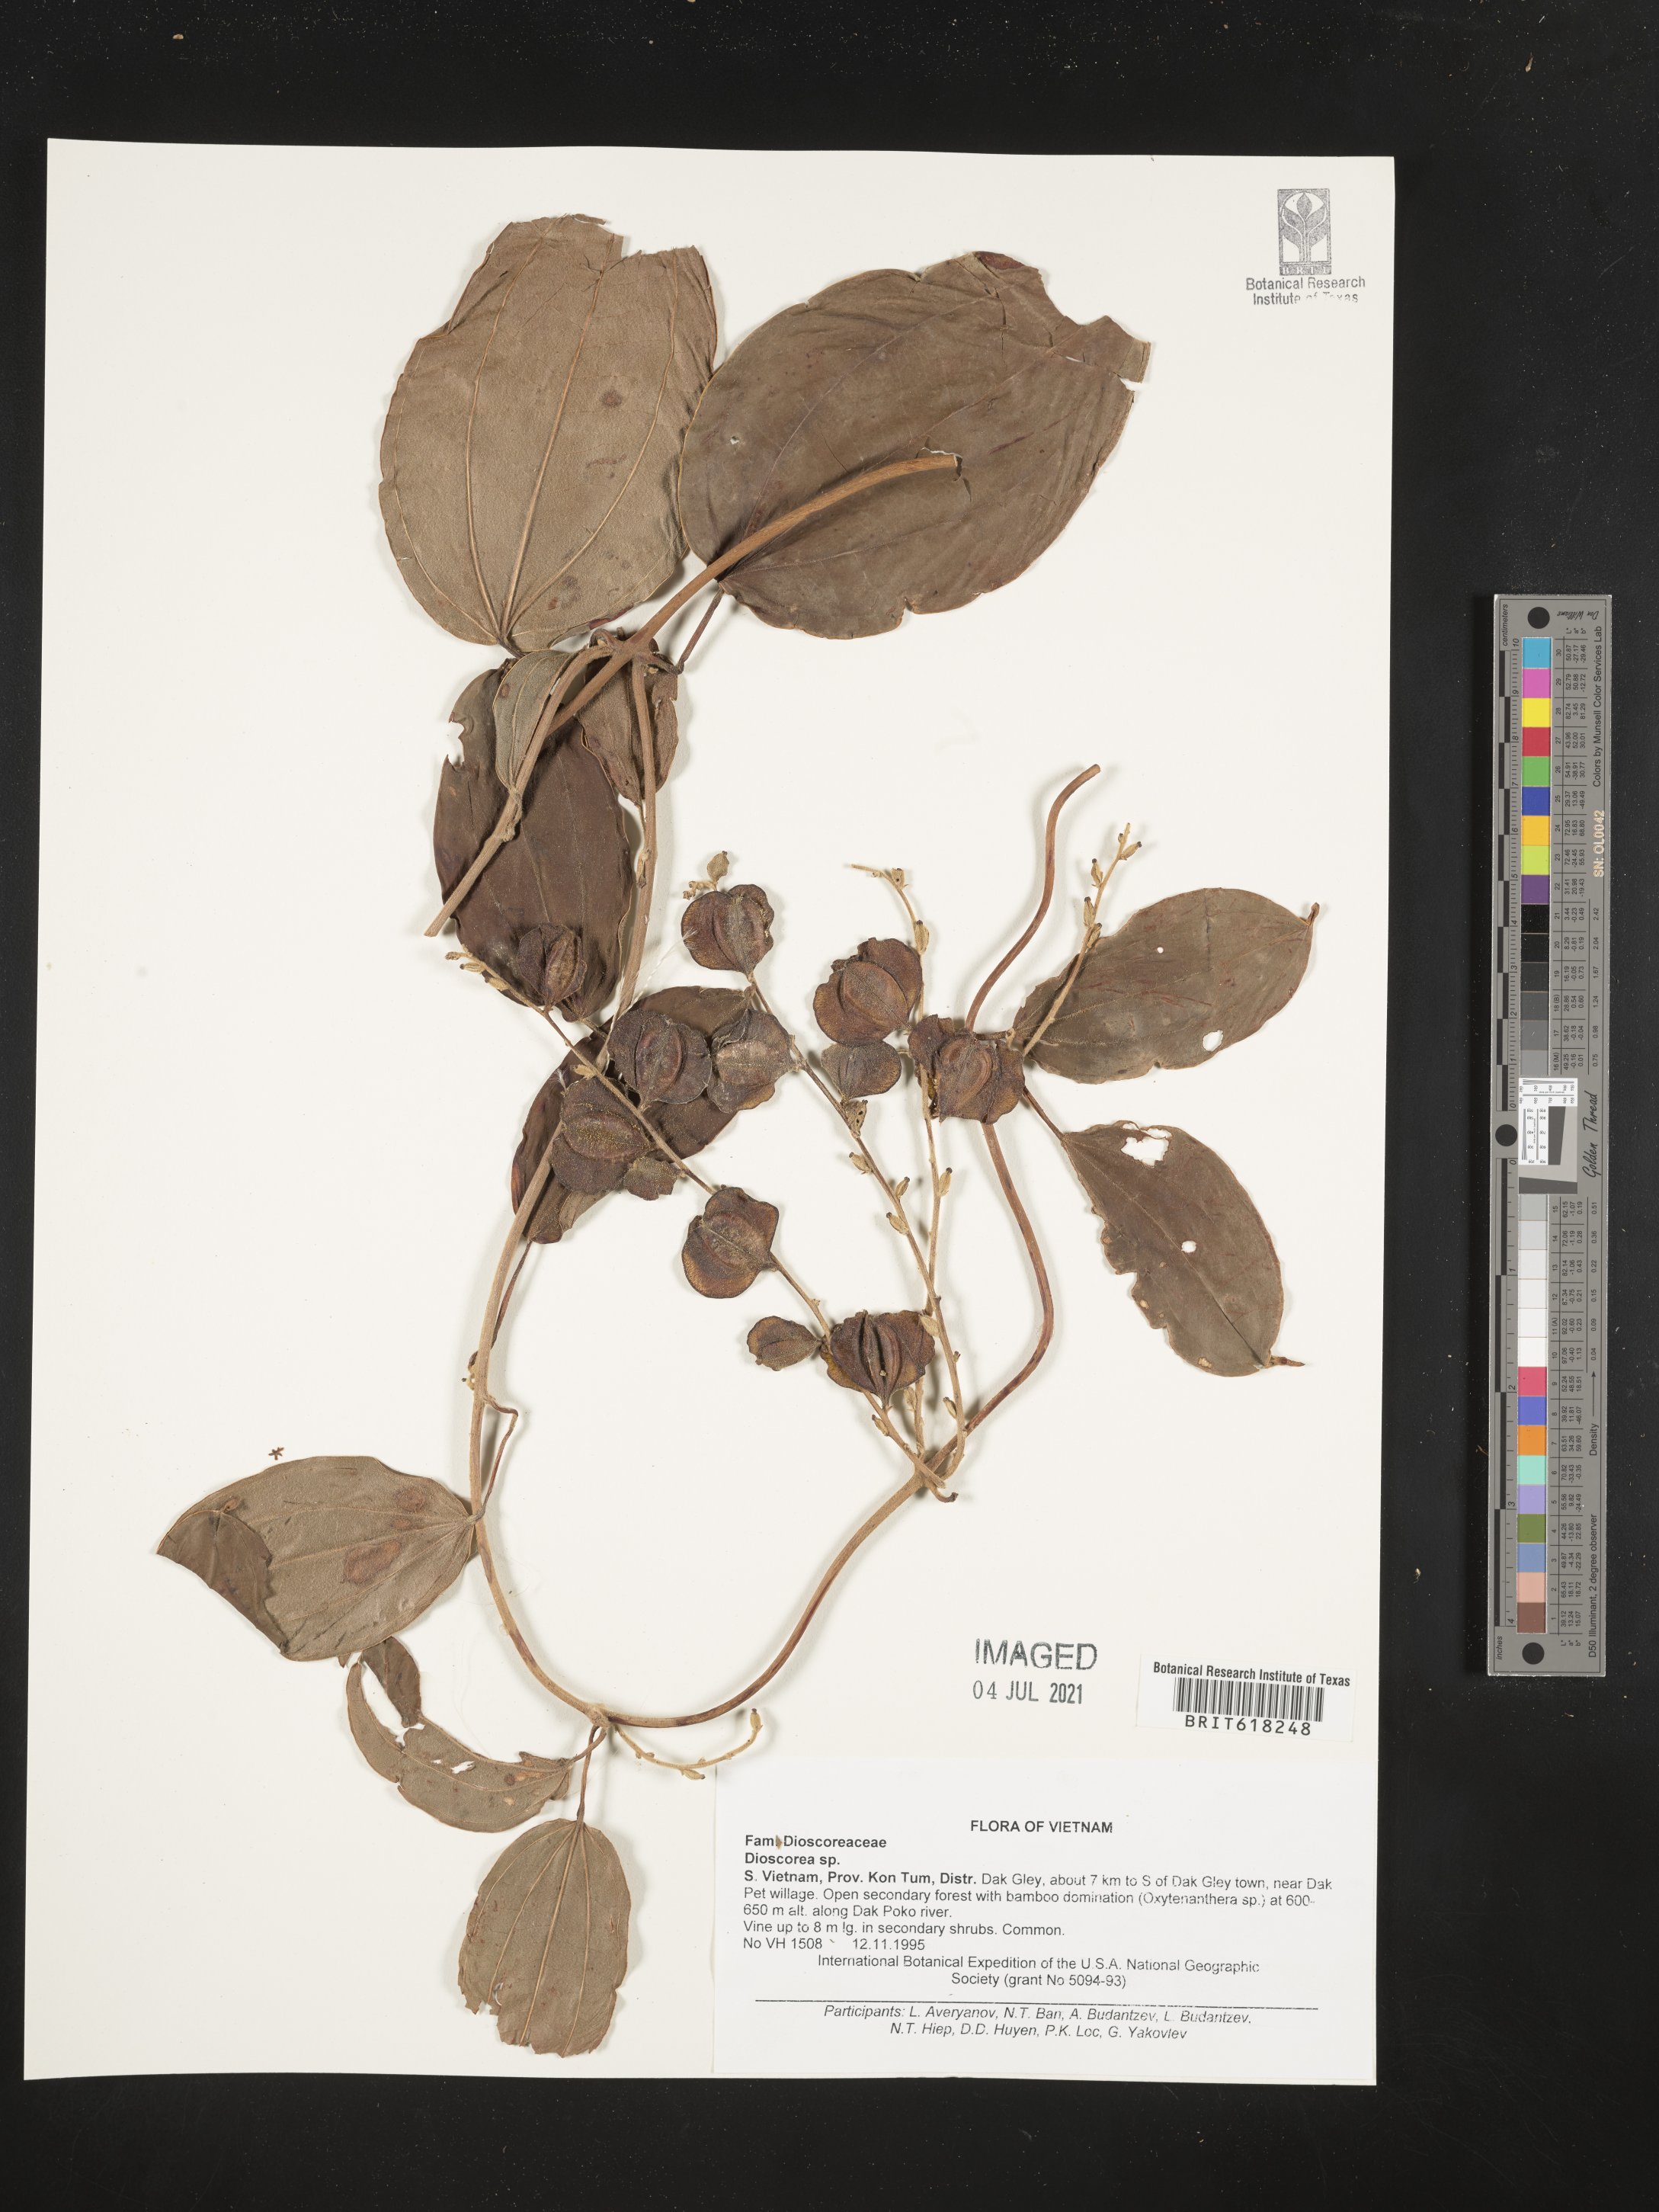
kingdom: Plantae
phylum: Tracheophyta
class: Liliopsida
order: Dioscoreales
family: Dioscoreaceae
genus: Dioscorea
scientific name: Dioscorea
